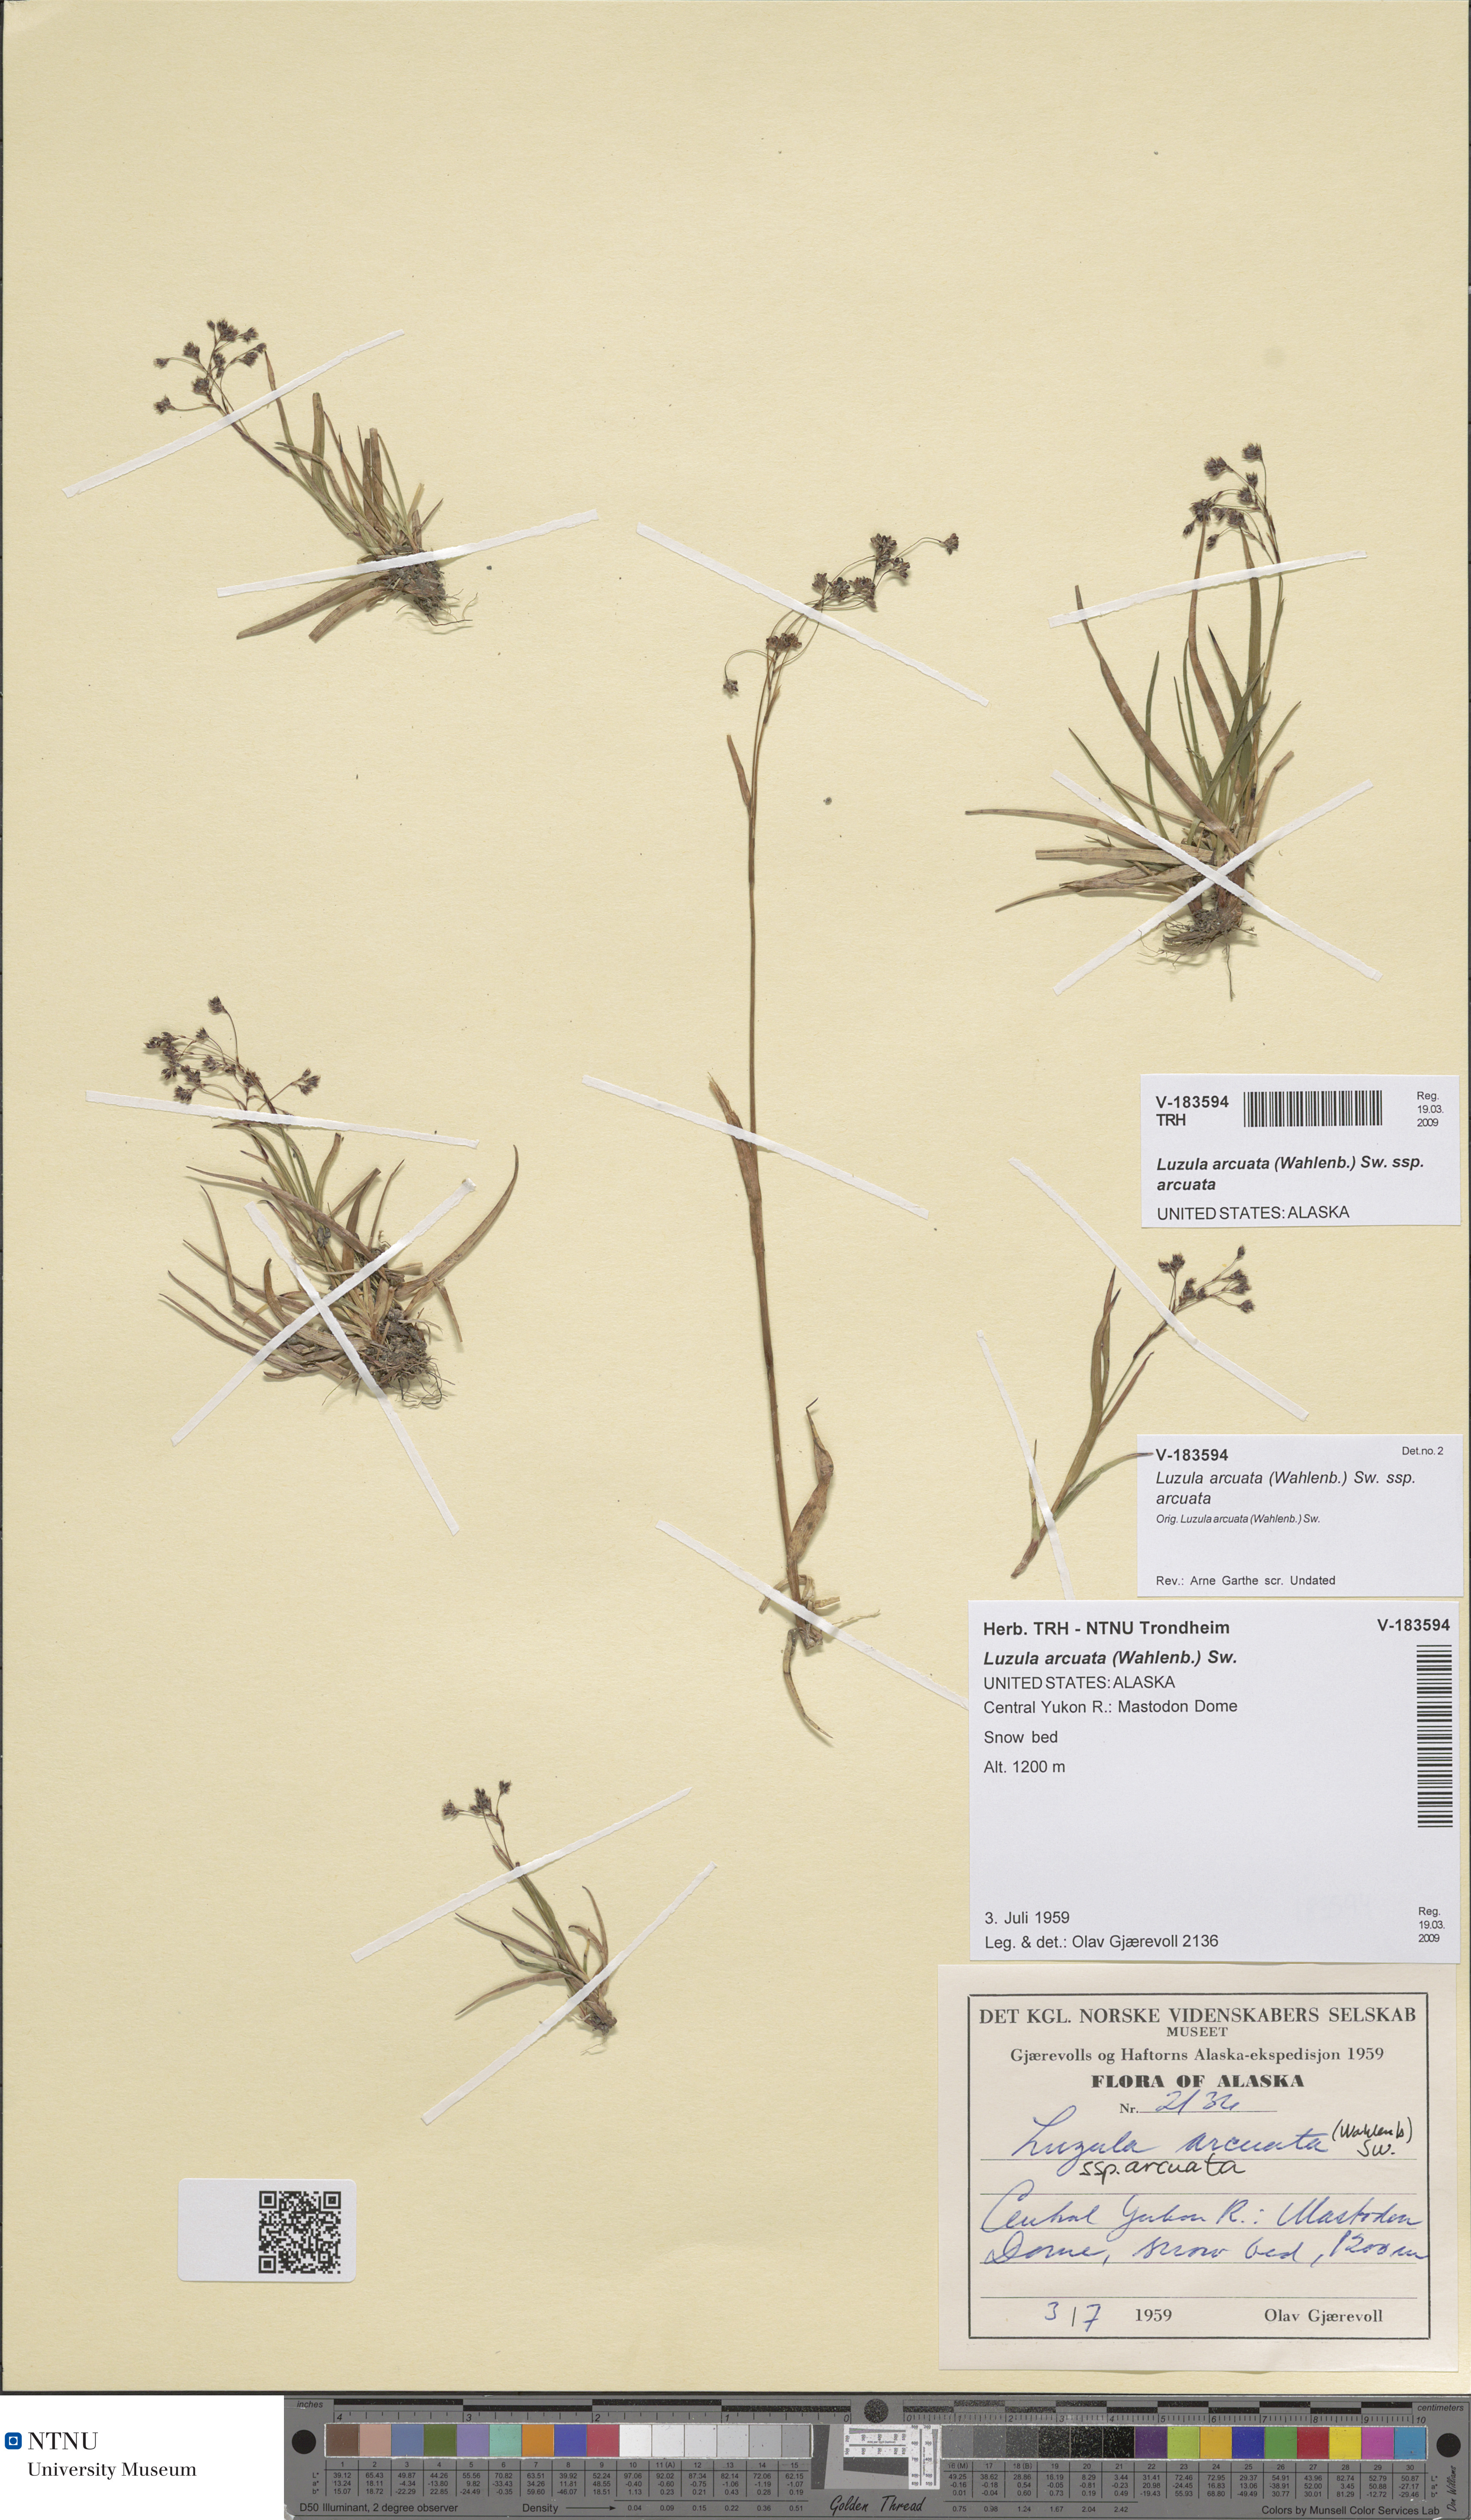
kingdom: Plantae
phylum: Tracheophyta
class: Liliopsida
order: Poales
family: Juncaceae
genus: Luzula
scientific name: Luzula arcuata
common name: Curved wood-rush
